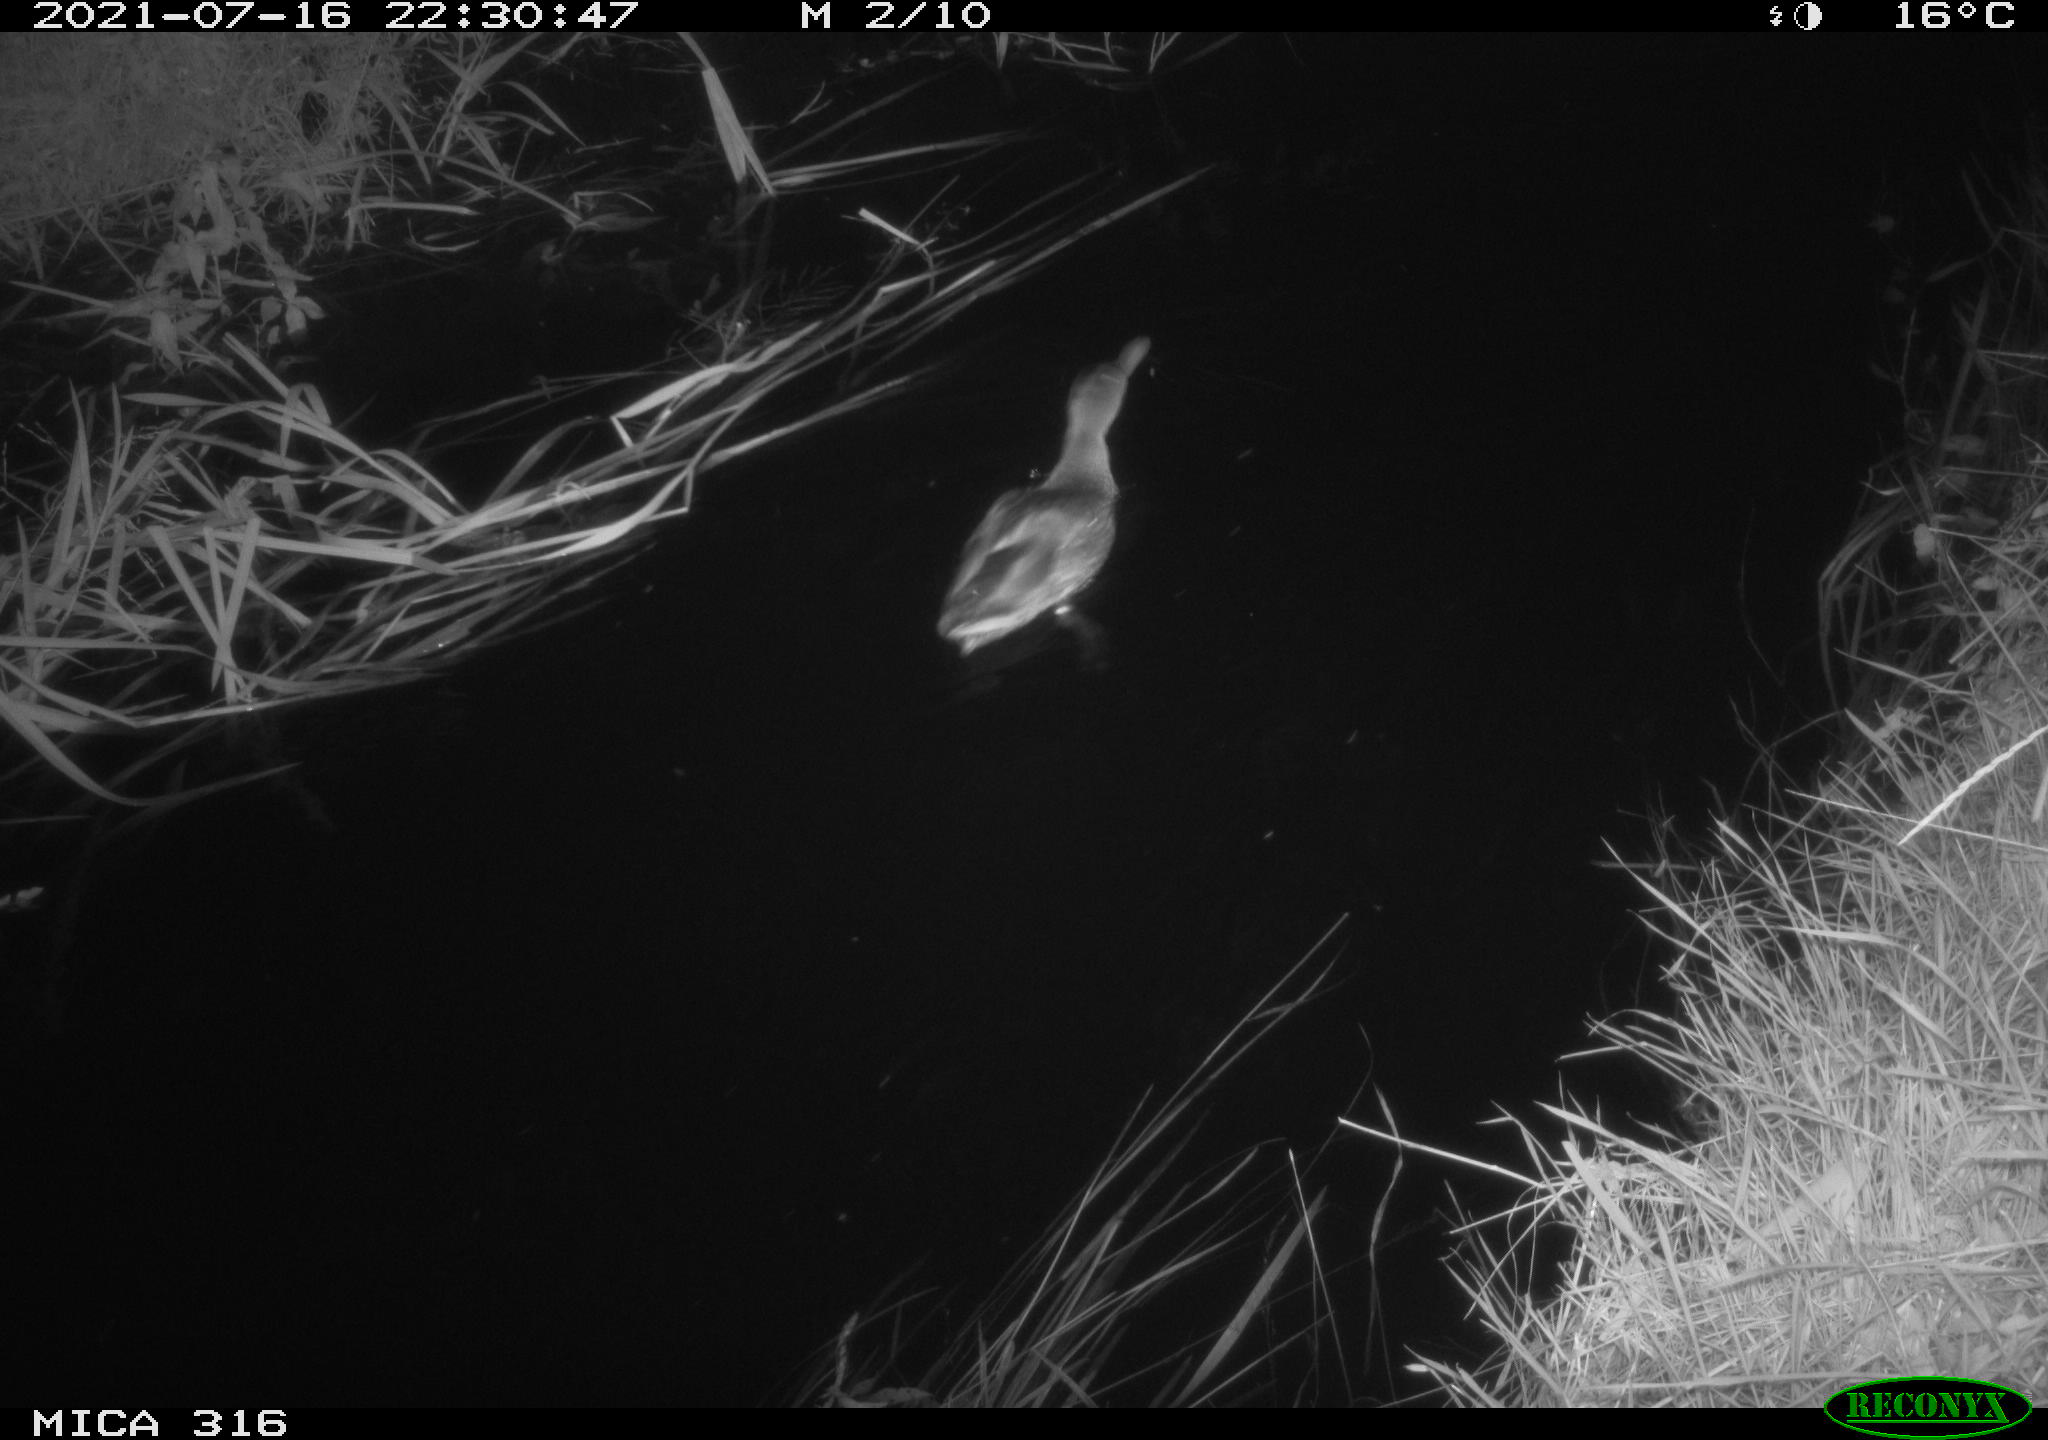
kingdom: Animalia
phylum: Chordata
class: Aves
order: Anseriformes
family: Anatidae
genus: Anas
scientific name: Anas platyrhynchos
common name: Mallard
